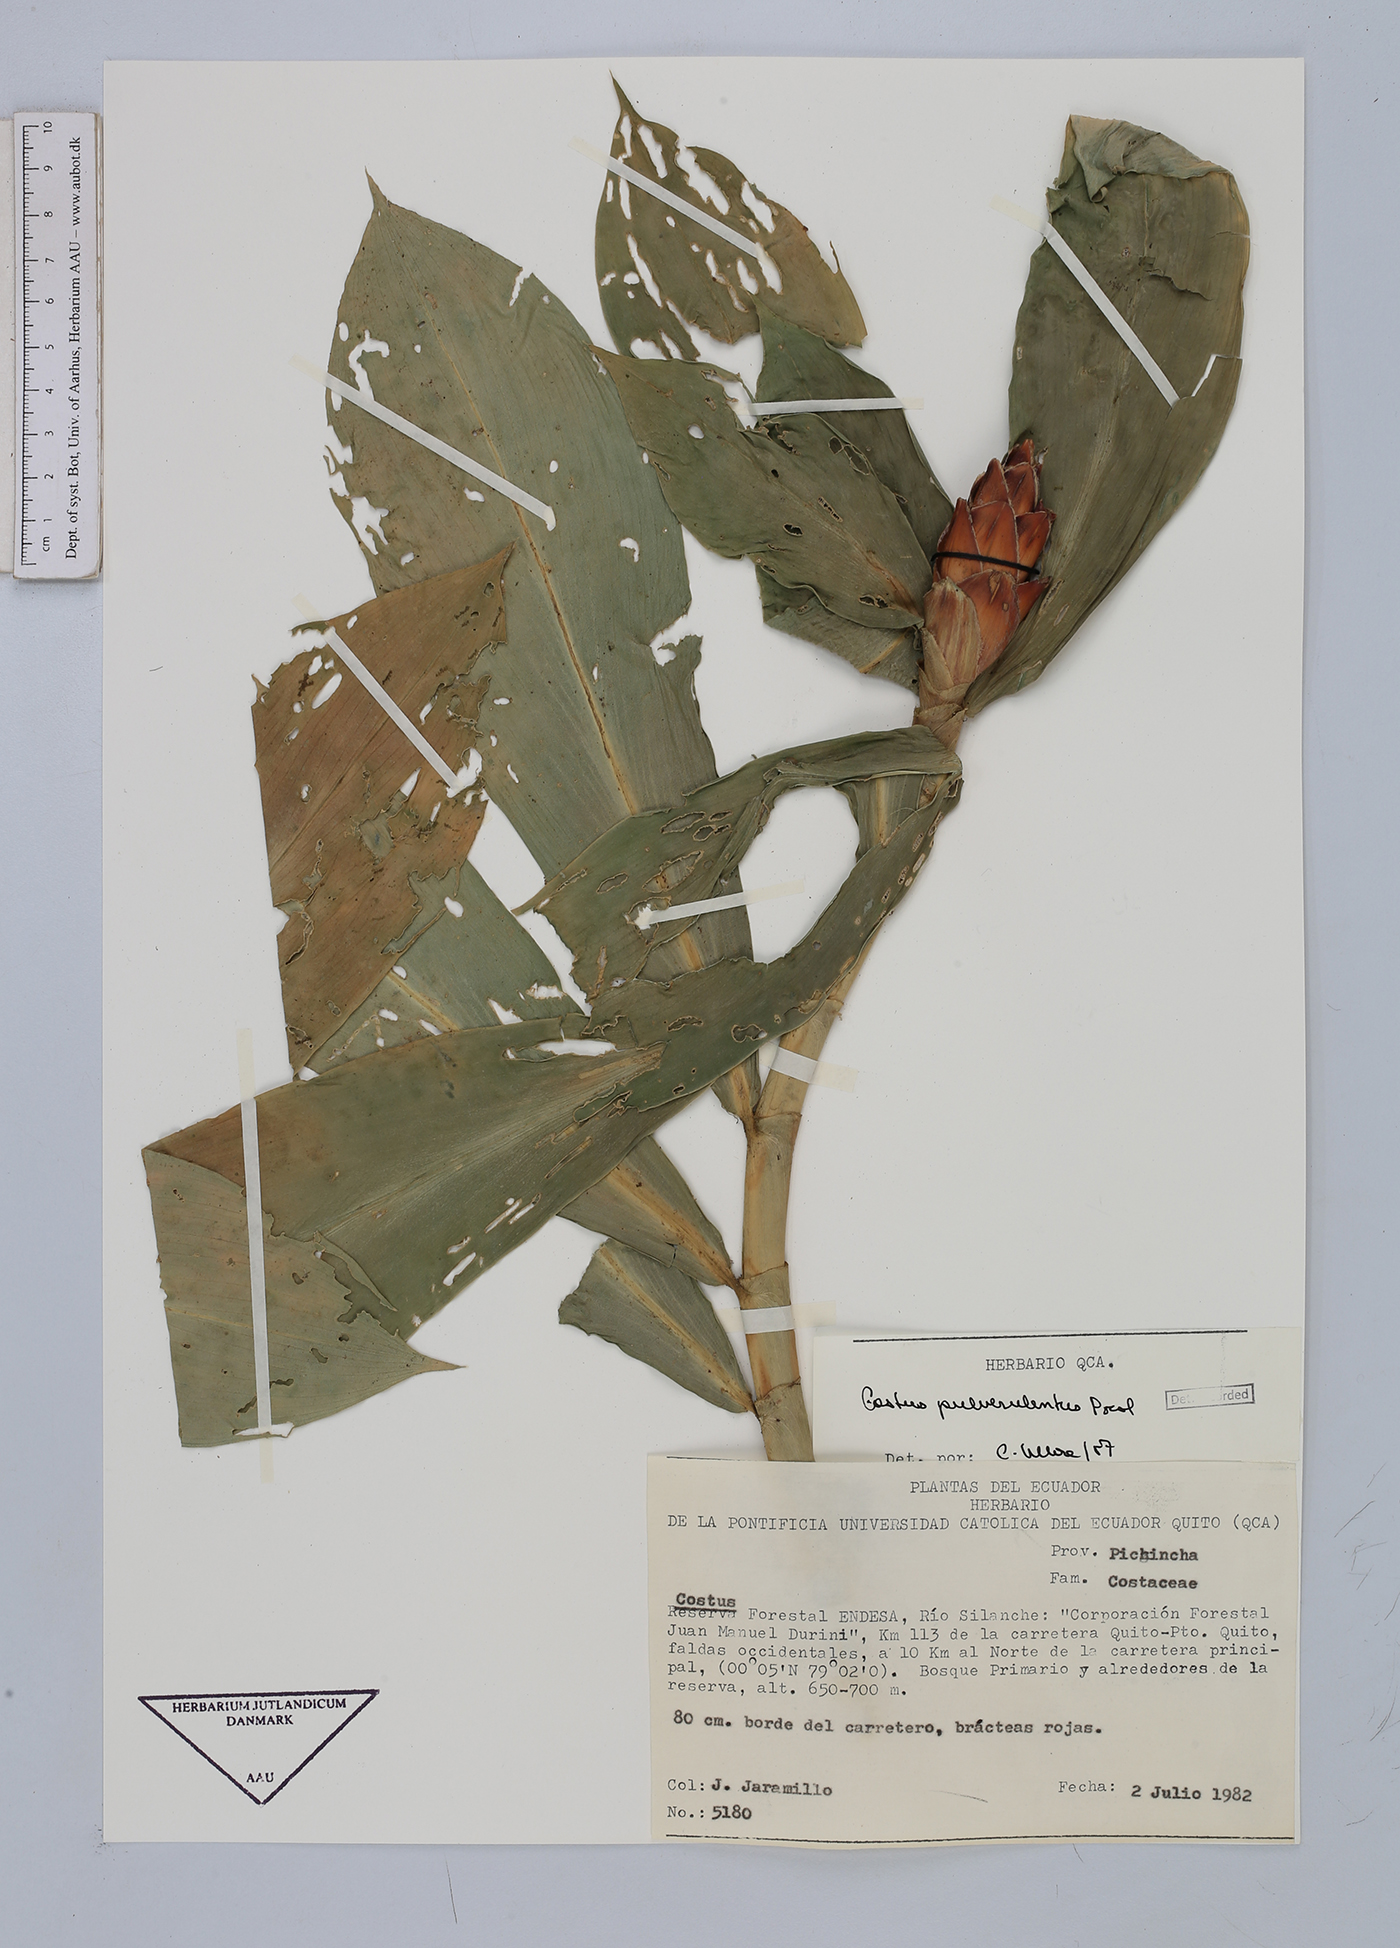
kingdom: Plantae
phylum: Tracheophyta
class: Liliopsida
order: Zingiberales
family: Costaceae
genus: Costus
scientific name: Costus pulverulentus
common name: Spiral ginger
